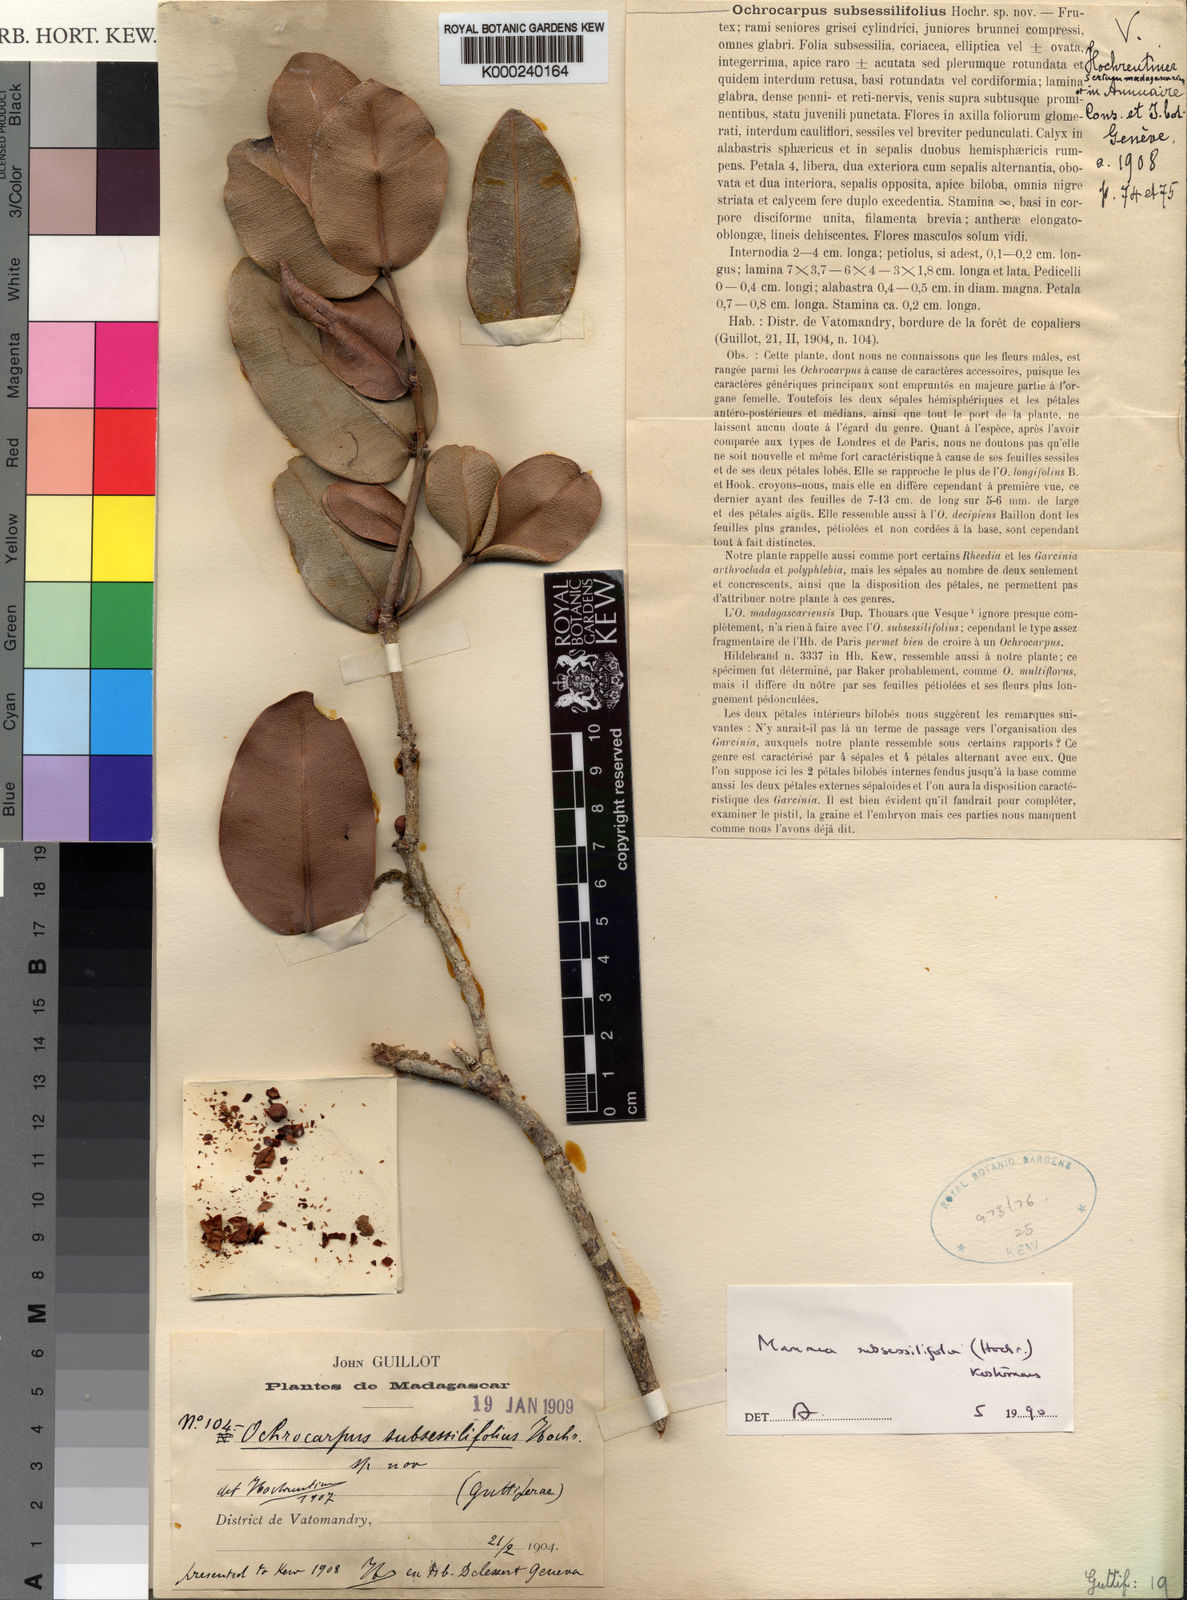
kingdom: Plantae
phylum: Tracheophyta
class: Magnoliopsida
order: Malpighiales
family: Calophyllaceae
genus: Mammea
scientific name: Mammea subsessilifolia
